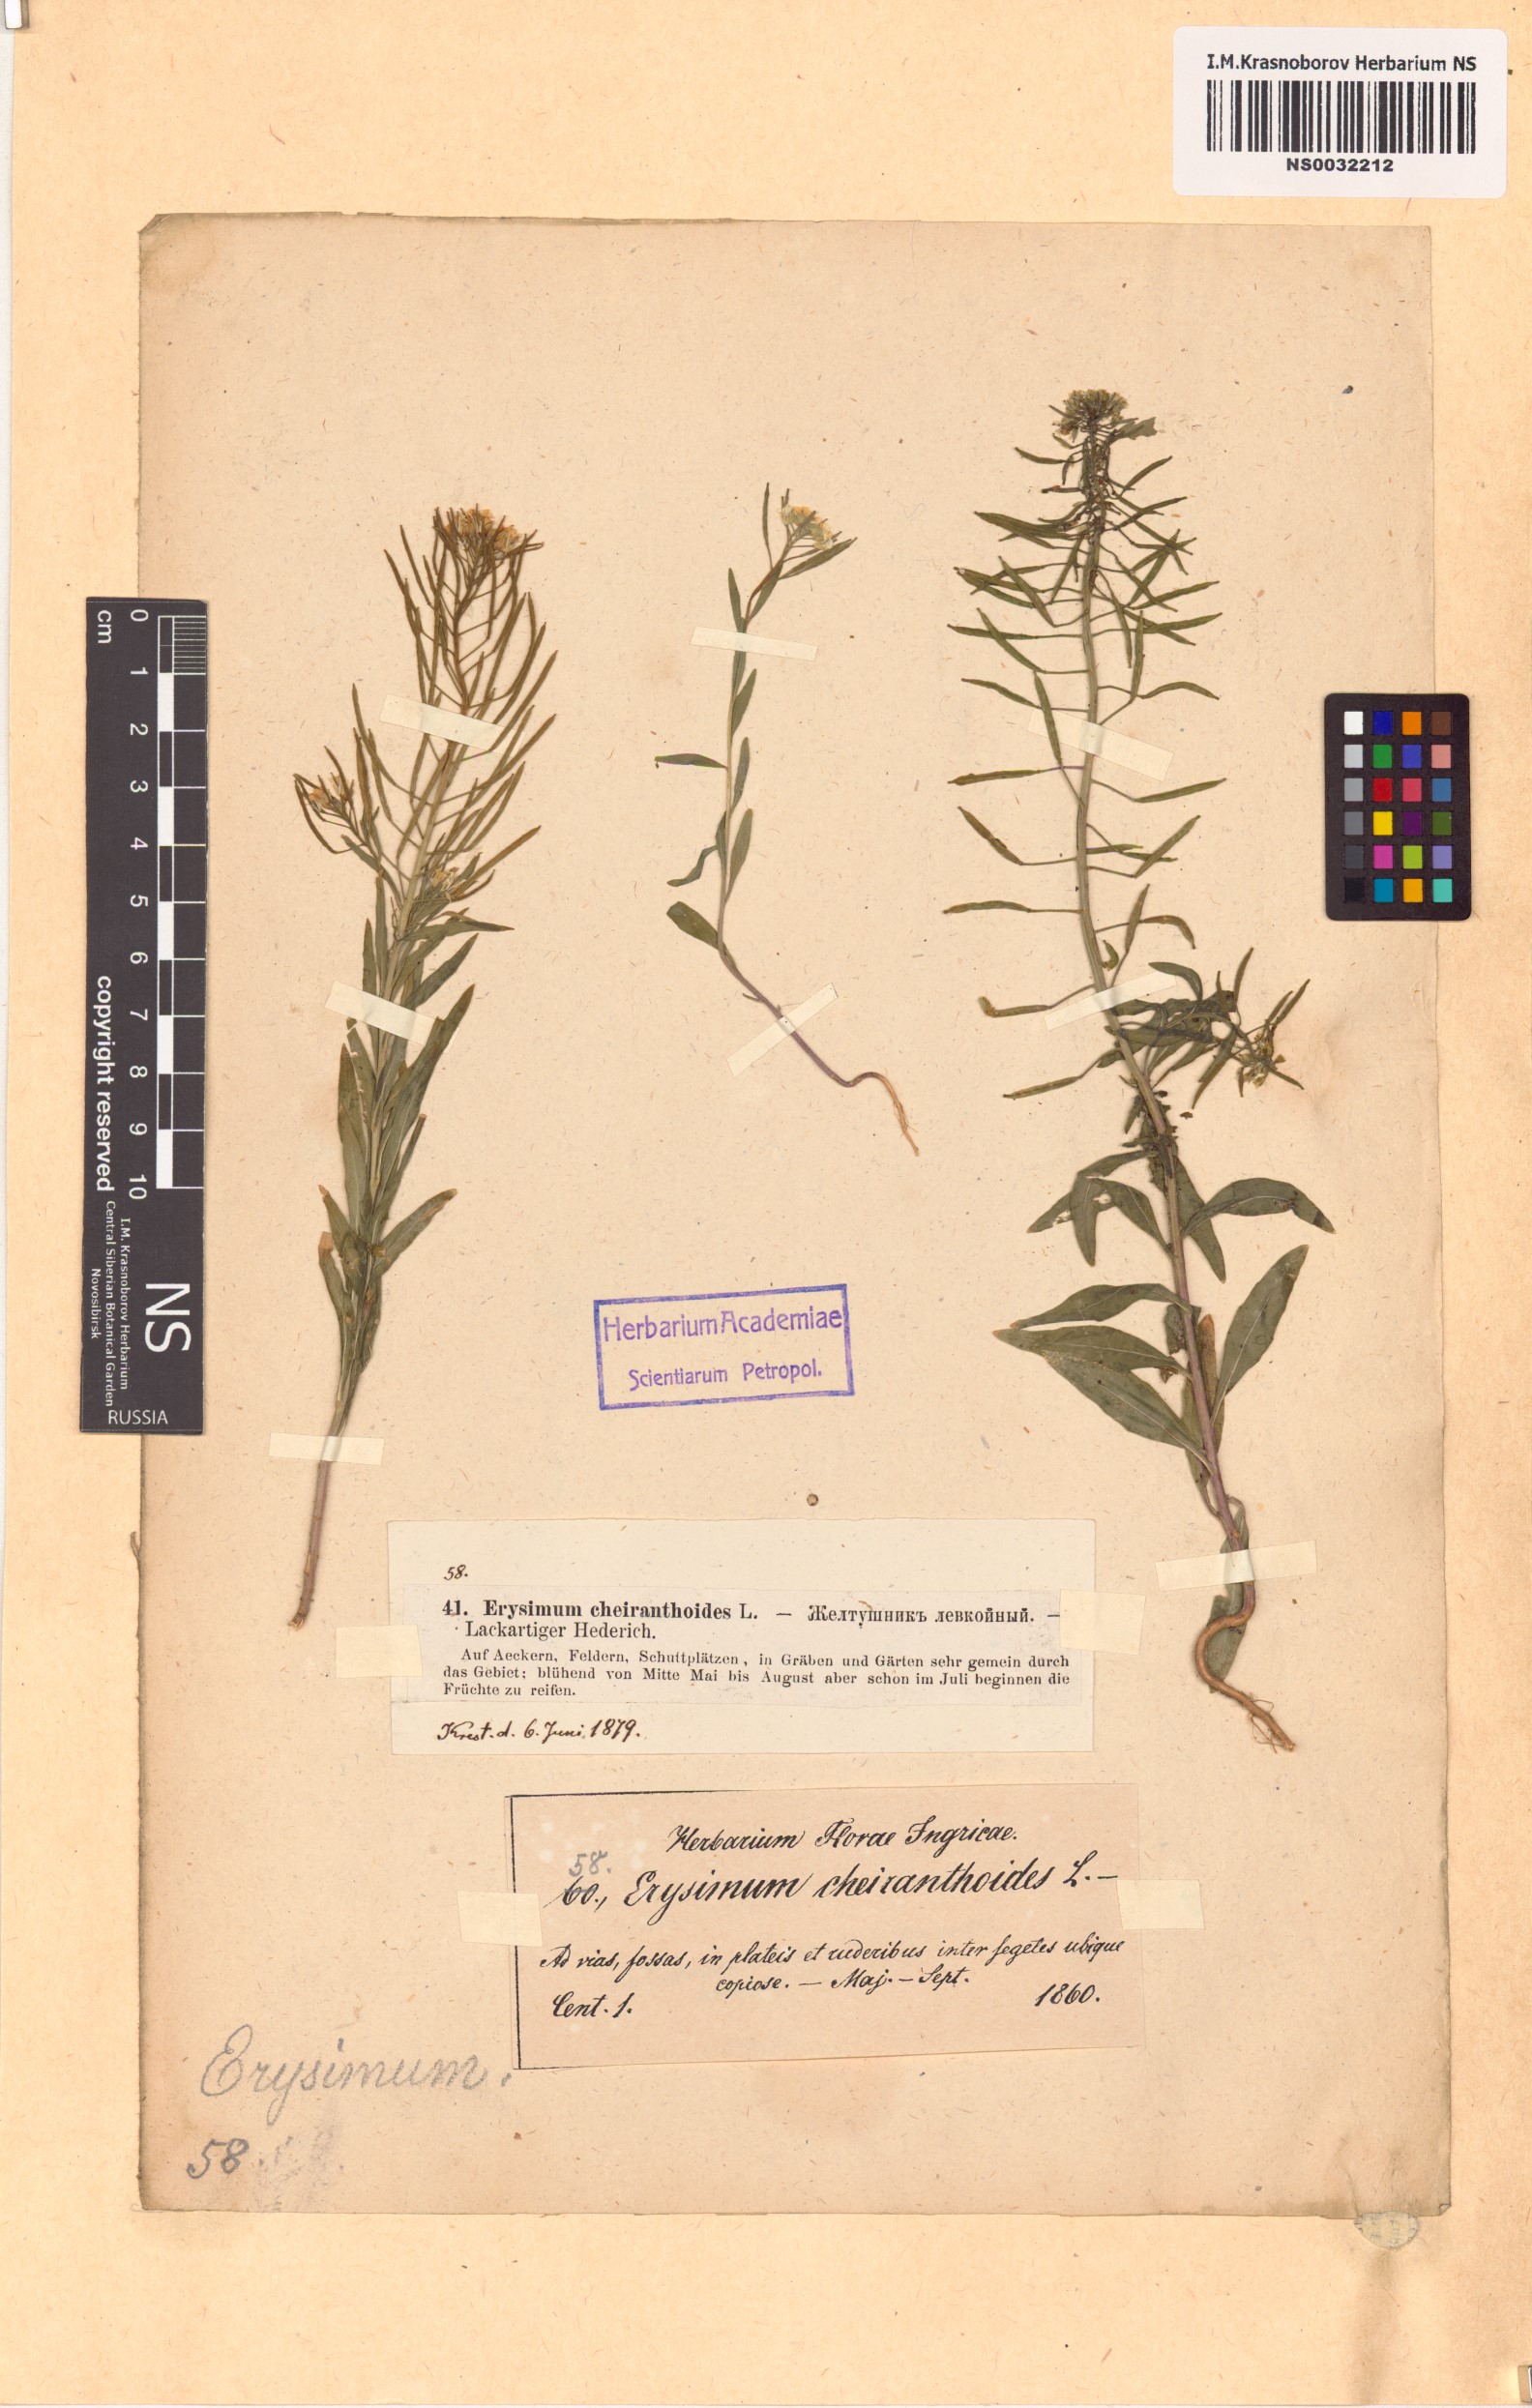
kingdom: Plantae
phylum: Tracheophyta
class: Magnoliopsida
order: Brassicales
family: Brassicaceae
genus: Erysimum
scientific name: Erysimum cheiranthoides
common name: Treacle mustard
